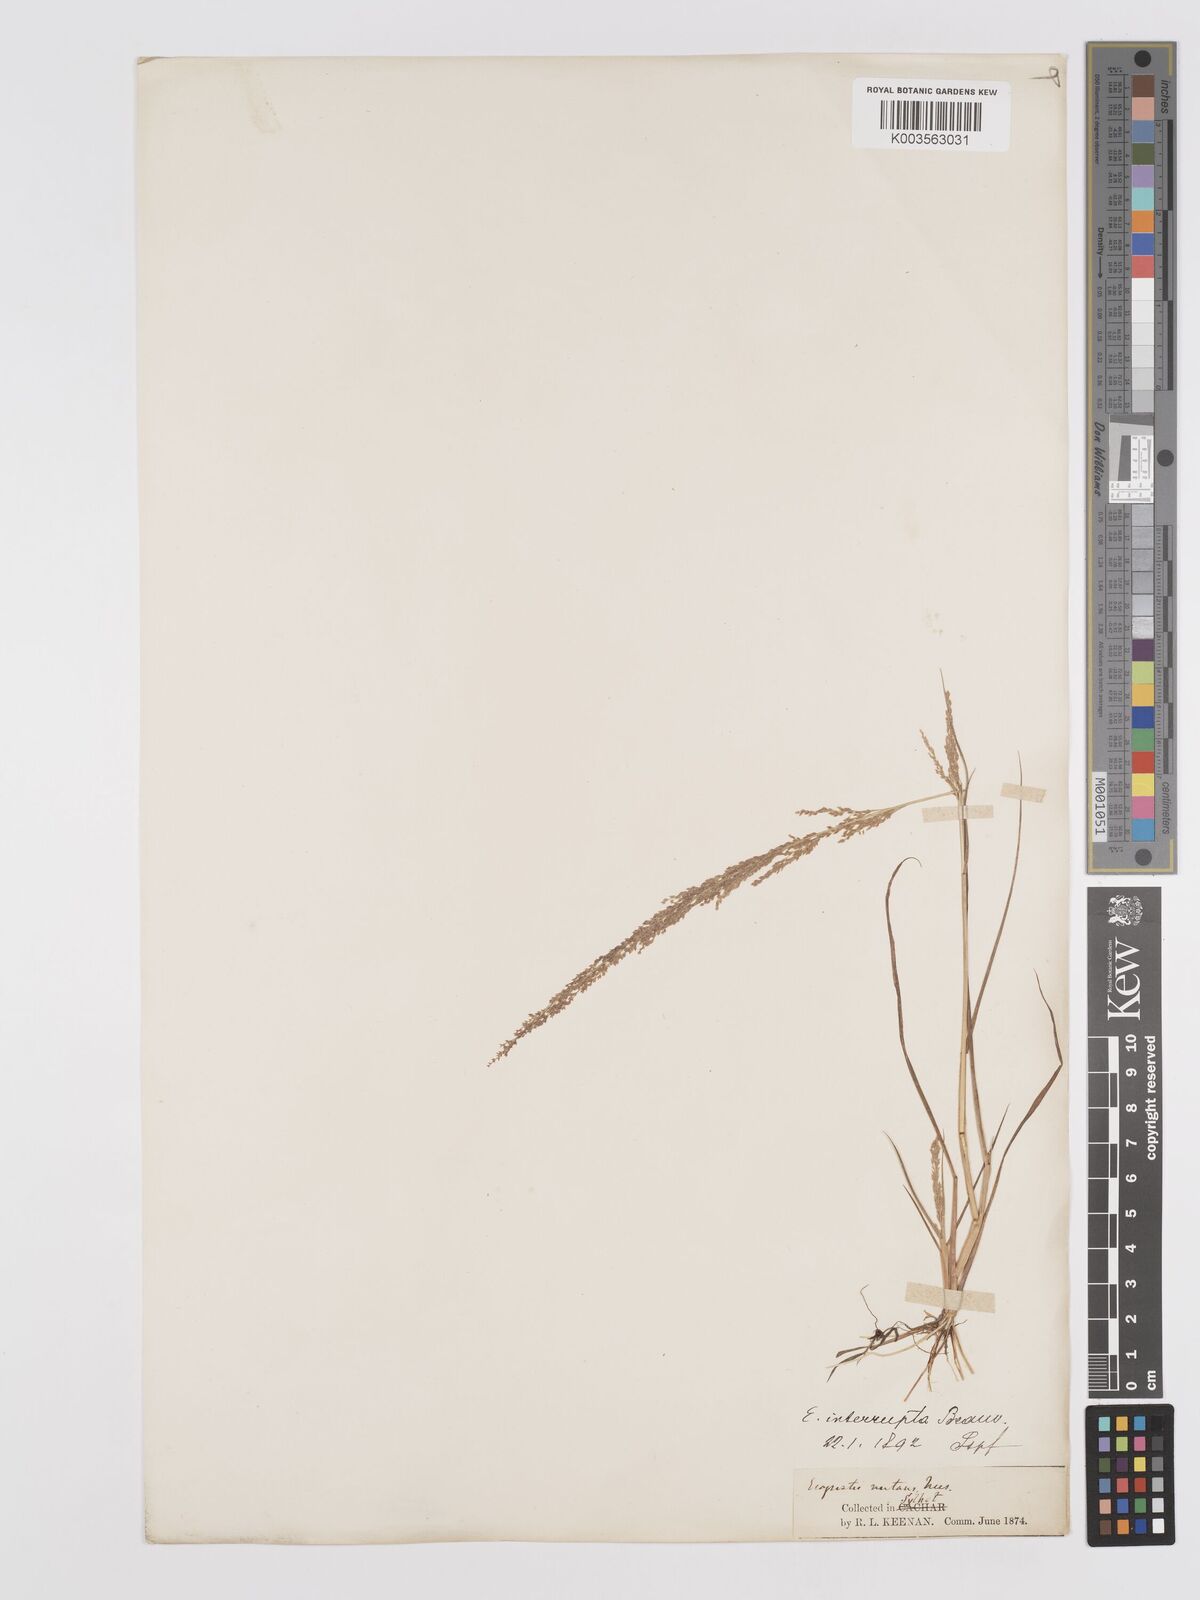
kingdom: Plantae
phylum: Tracheophyta
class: Liliopsida
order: Poales
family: Poaceae
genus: Eragrostis
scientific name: Eragrostis japonica
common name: Pond lovegrass
